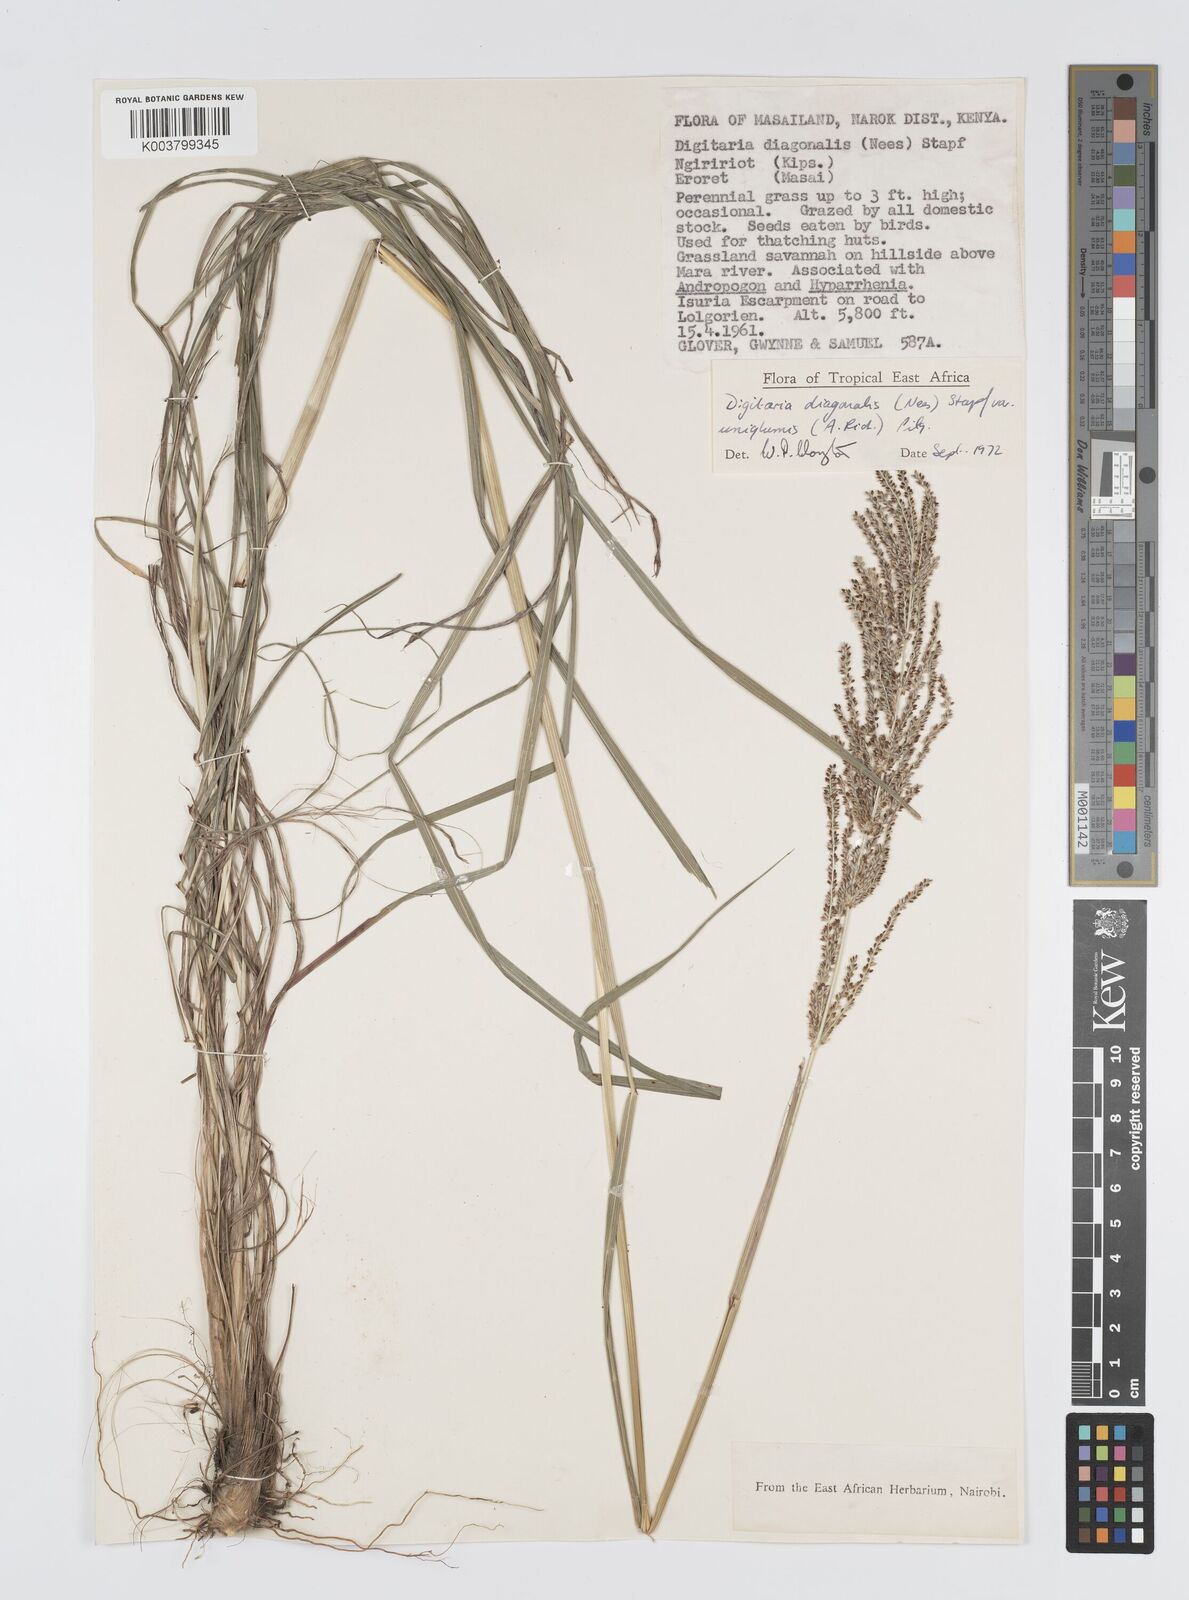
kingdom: Plantae
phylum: Tracheophyta
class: Liliopsida
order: Poales
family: Poaceae
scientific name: Poaceae
